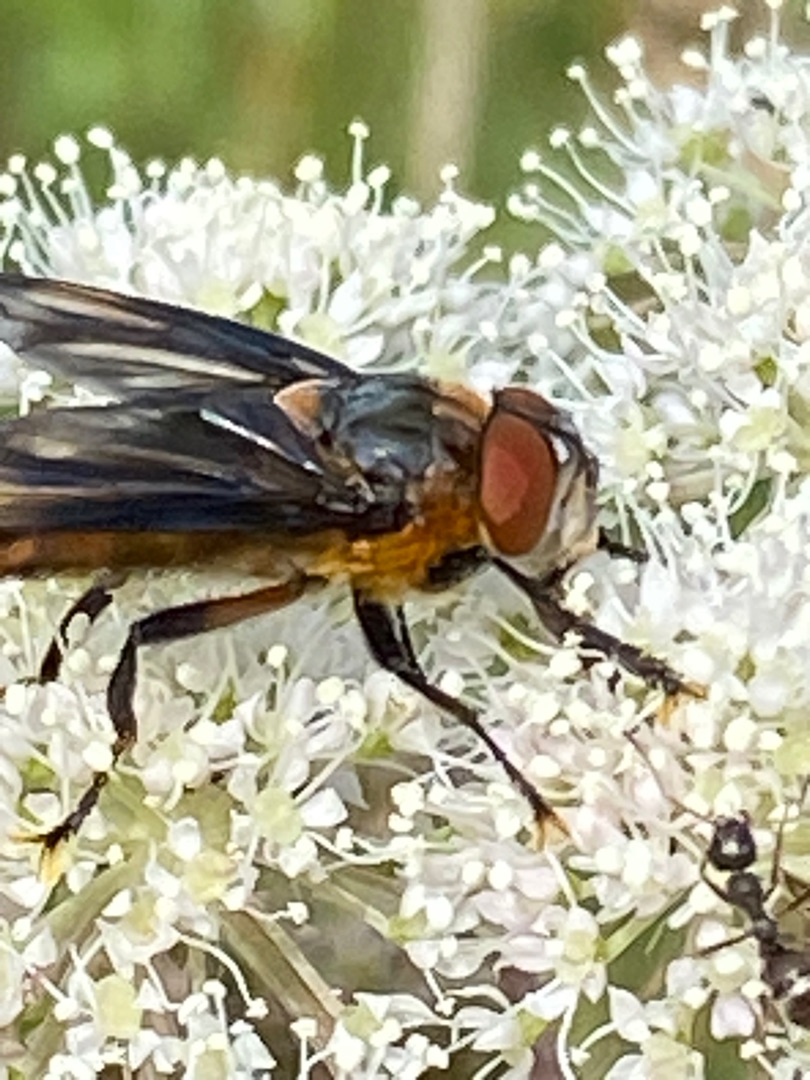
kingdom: Animalia
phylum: Arthropoda
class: Insecta
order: Diptera
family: Tachinidae
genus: Phasia
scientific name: Phasia hemiptera
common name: Blåvinget pragtsnylteflue
